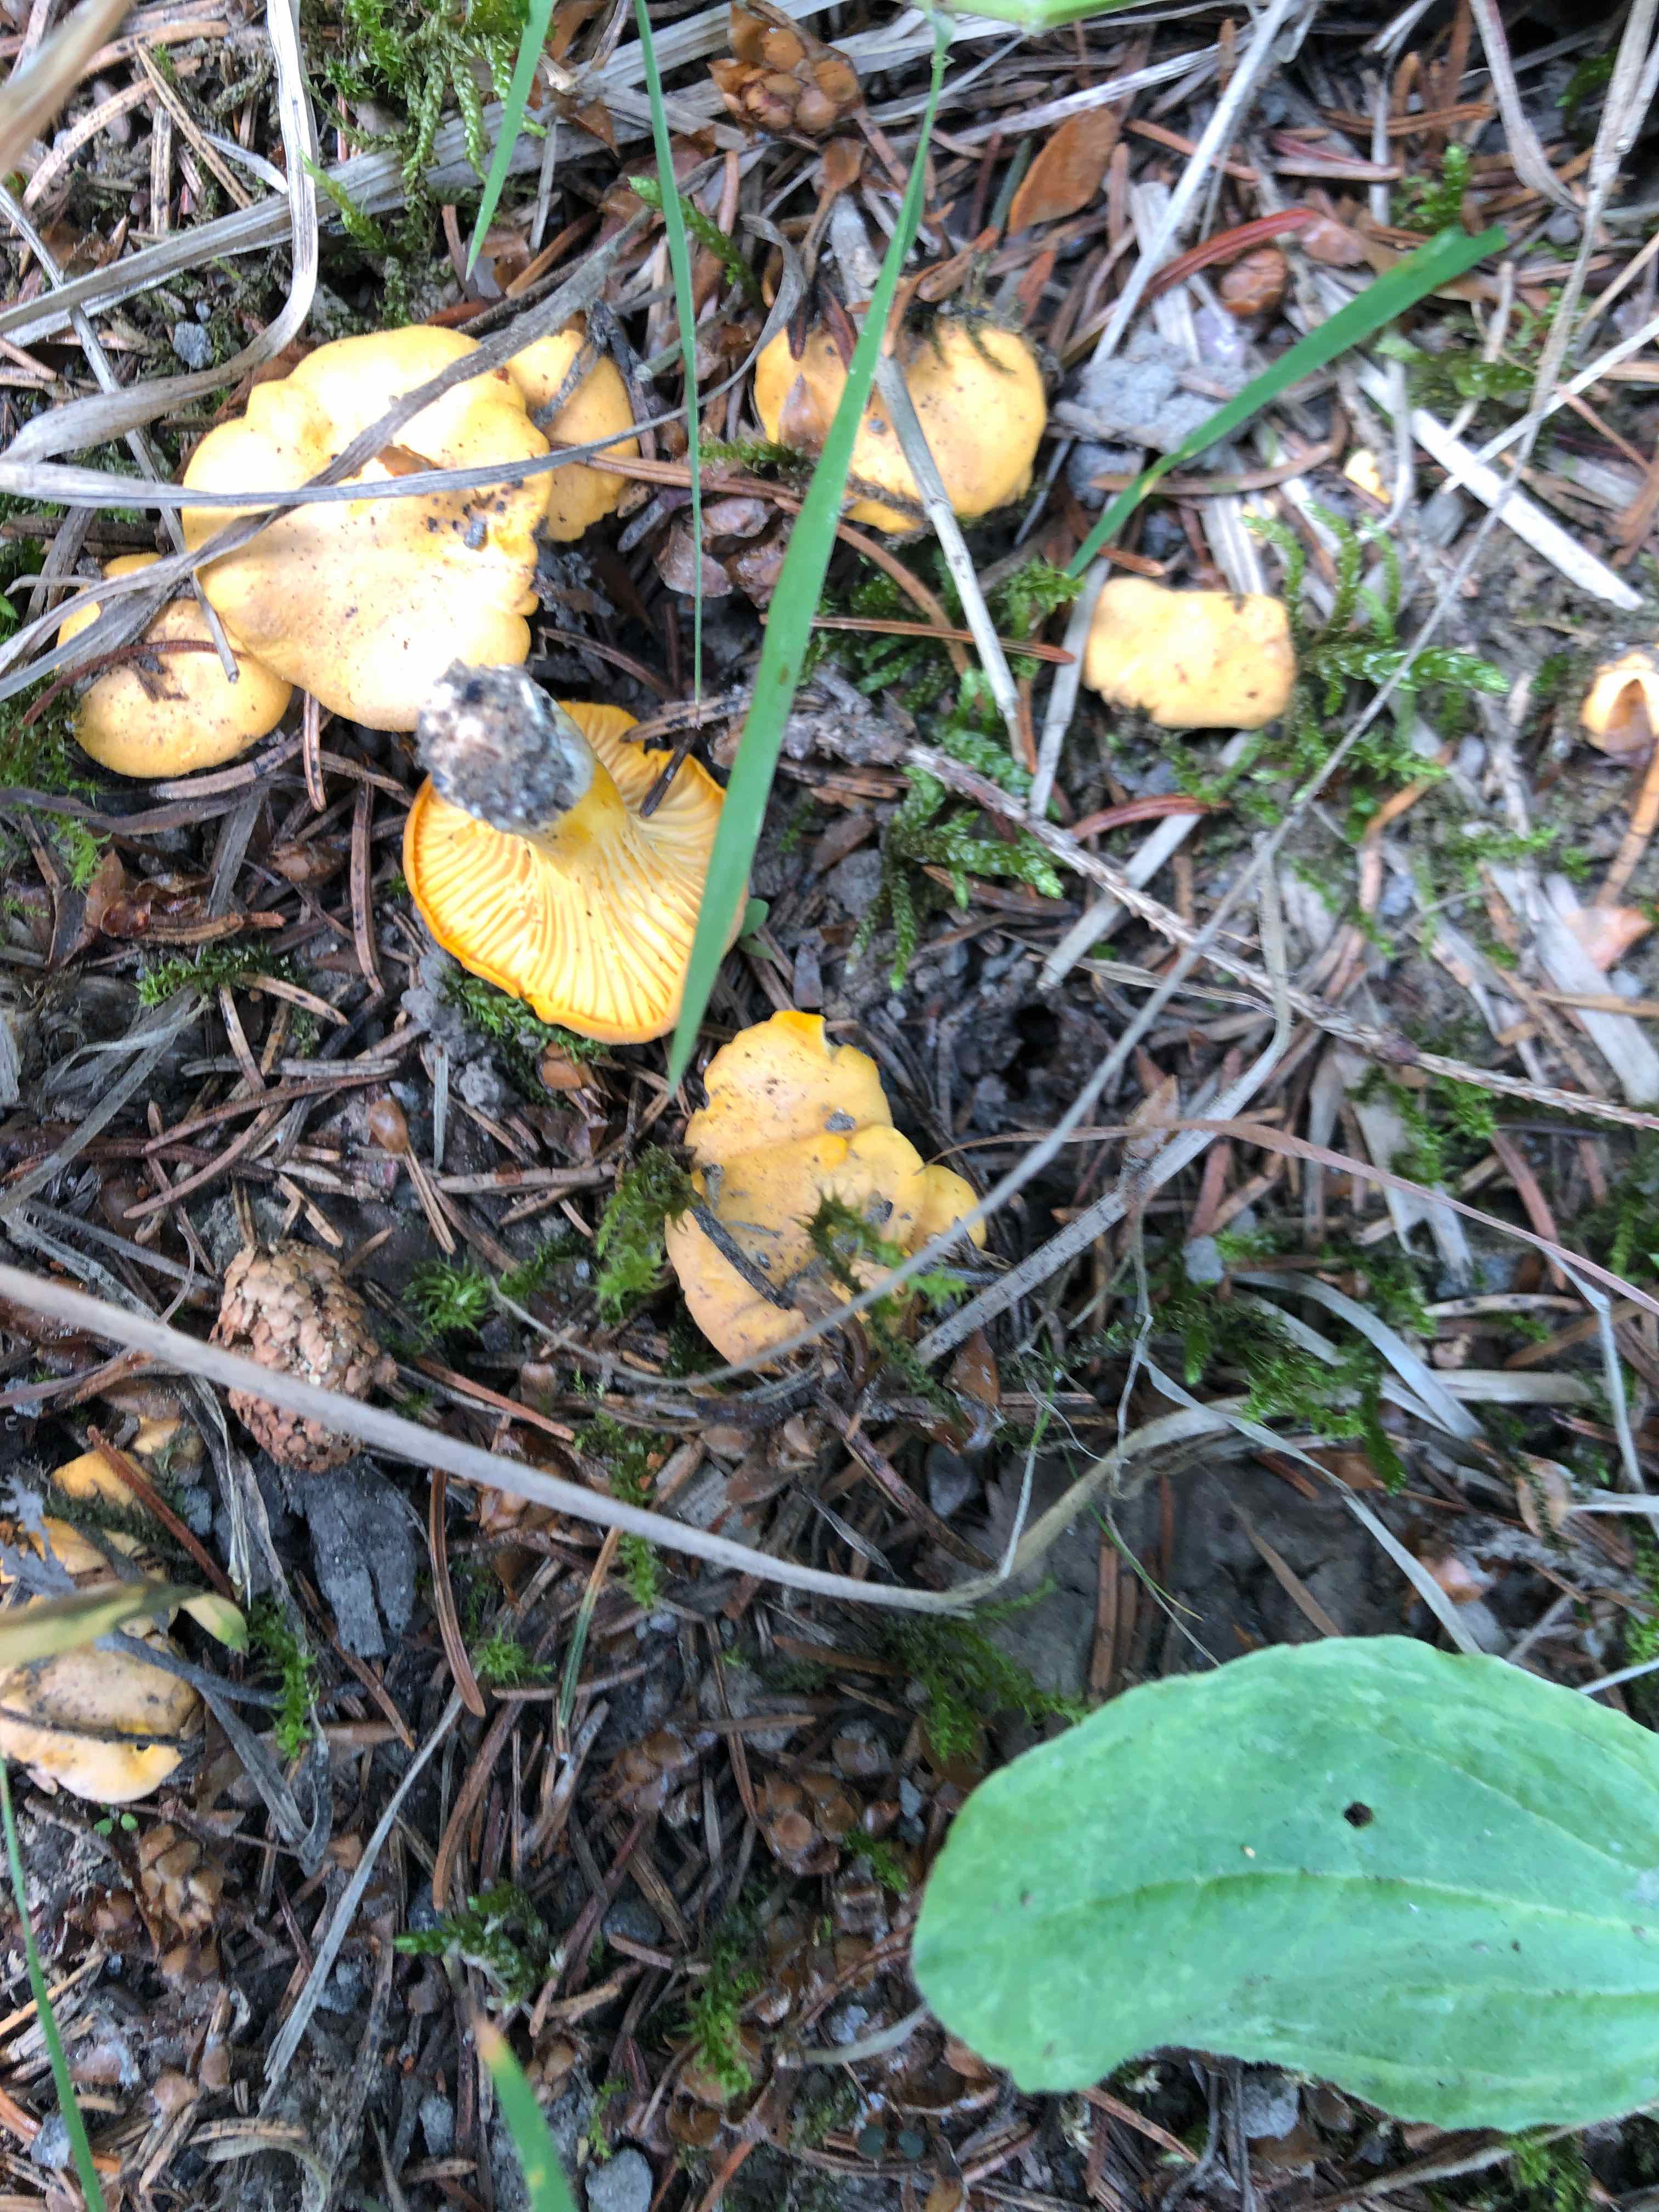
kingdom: Fungi
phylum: Basidiomycota
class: Agaricomycetes
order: Cantharellales
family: Hydnaceae
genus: Cantharellus
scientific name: Cantharellus cibarius
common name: almindelig kantarel
